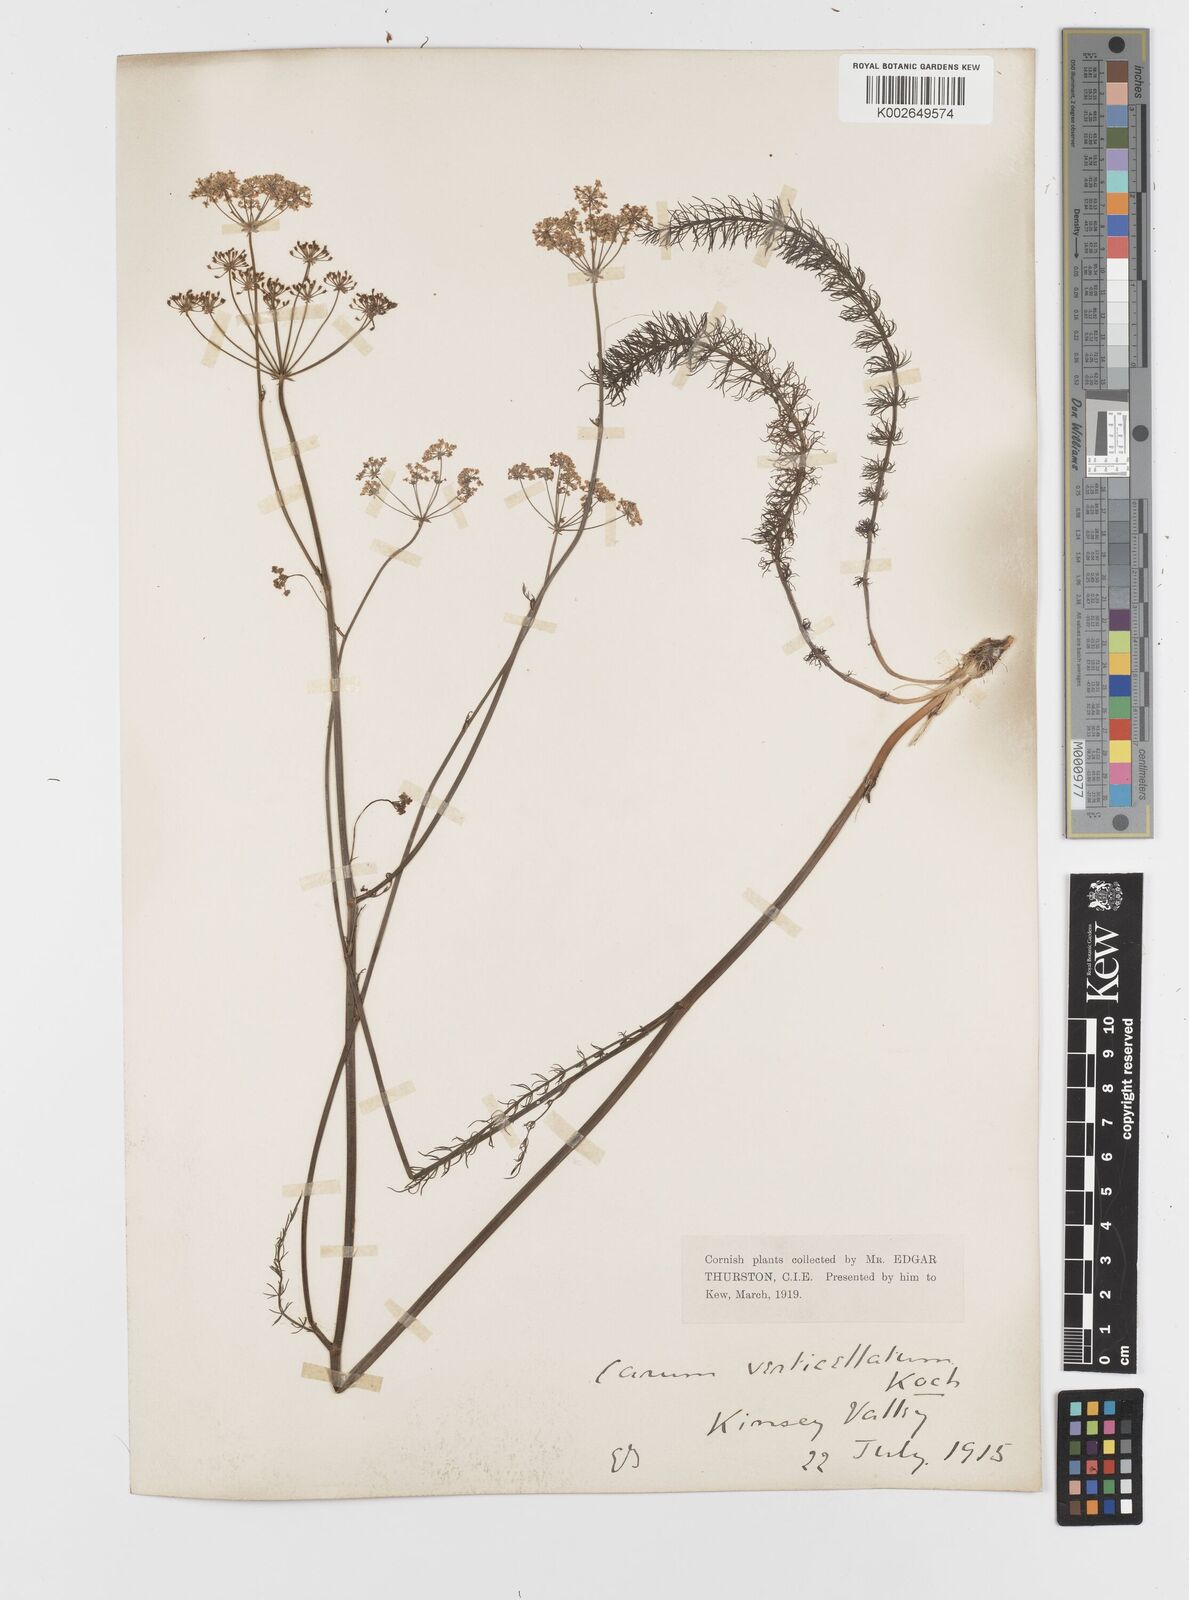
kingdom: Plantae
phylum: Tracheophyta
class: Magnoliopsida
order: Apiales
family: Apiaceae
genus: Trocdaris
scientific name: Trocdaris verticillatum
